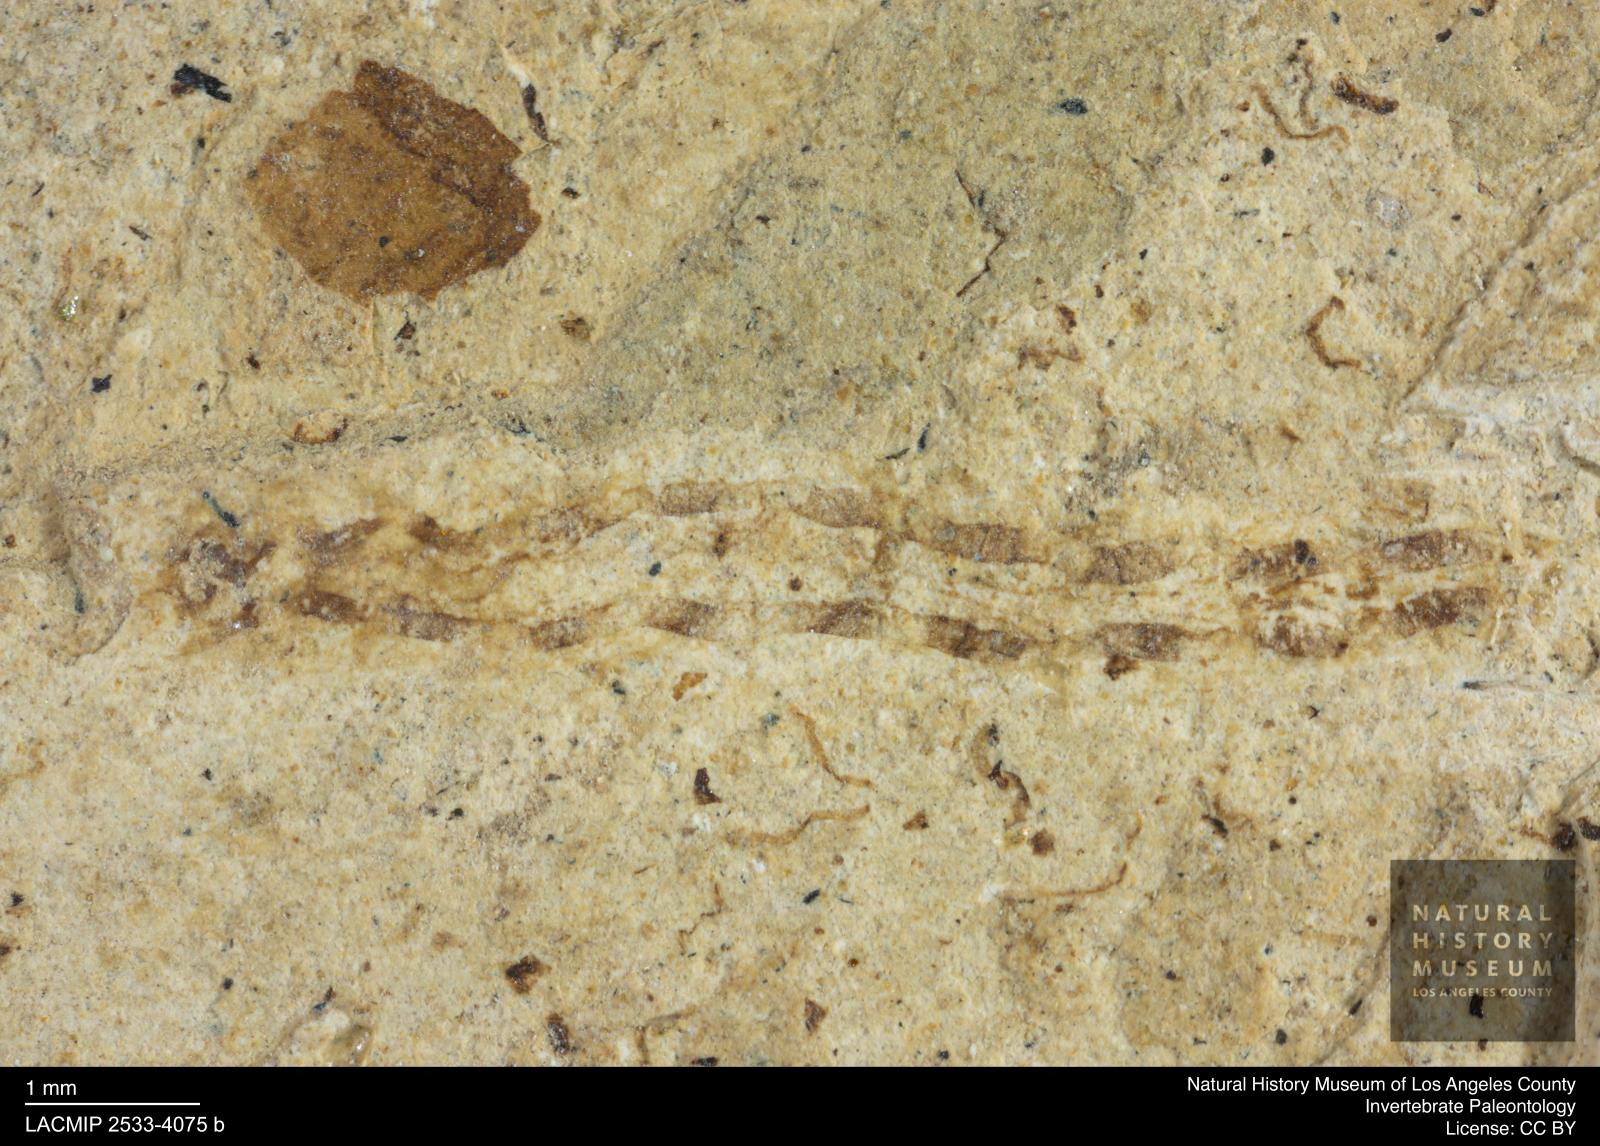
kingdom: Animalia
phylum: Arthropoda
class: Insecta
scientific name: Insecta
